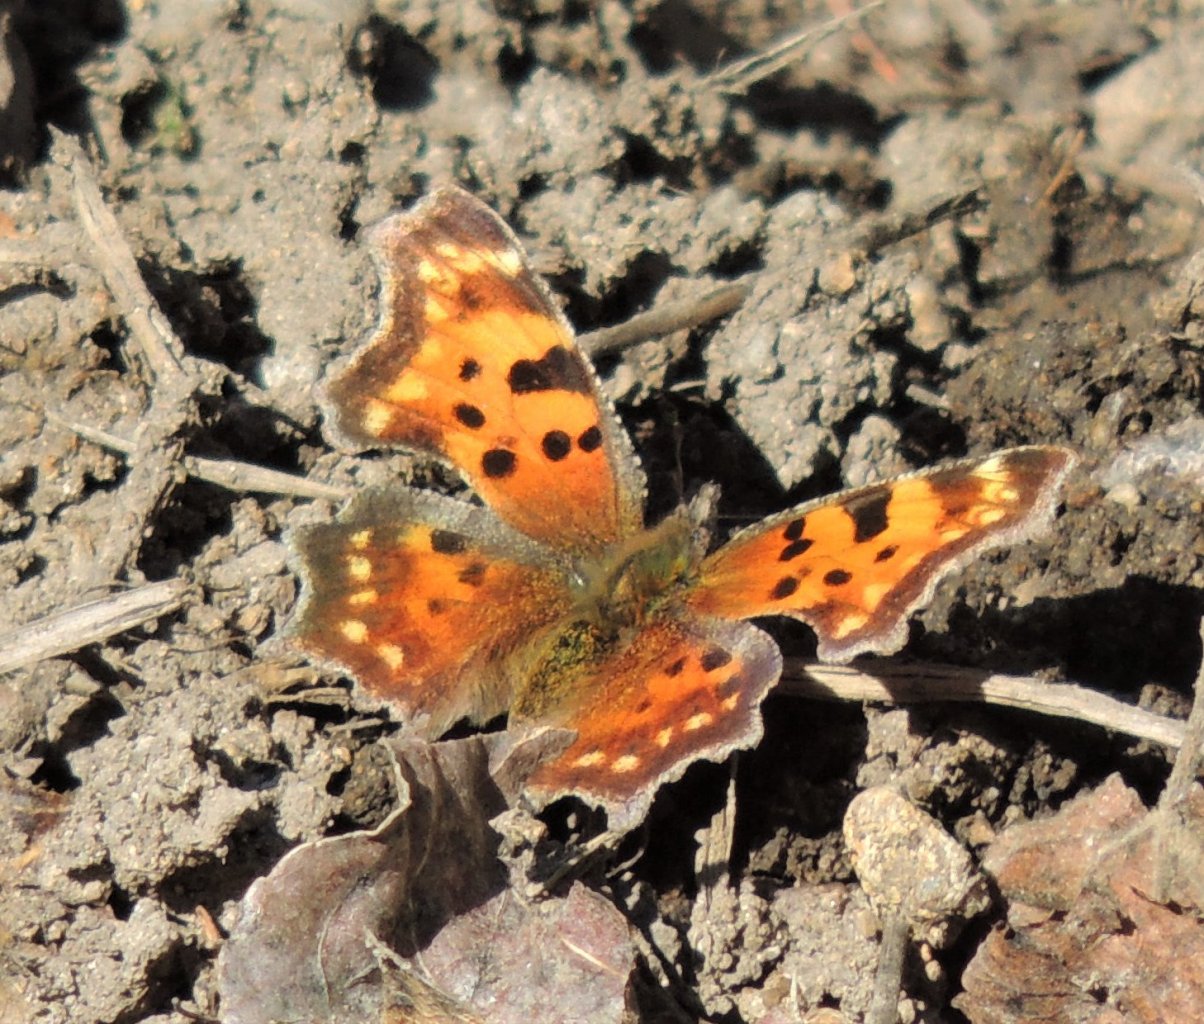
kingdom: Animalia
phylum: Arthropoda
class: Insecta
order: Lepidoptera
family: Nymphalidae
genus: Polygonia
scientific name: Polygonia faunus
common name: Green Comma
